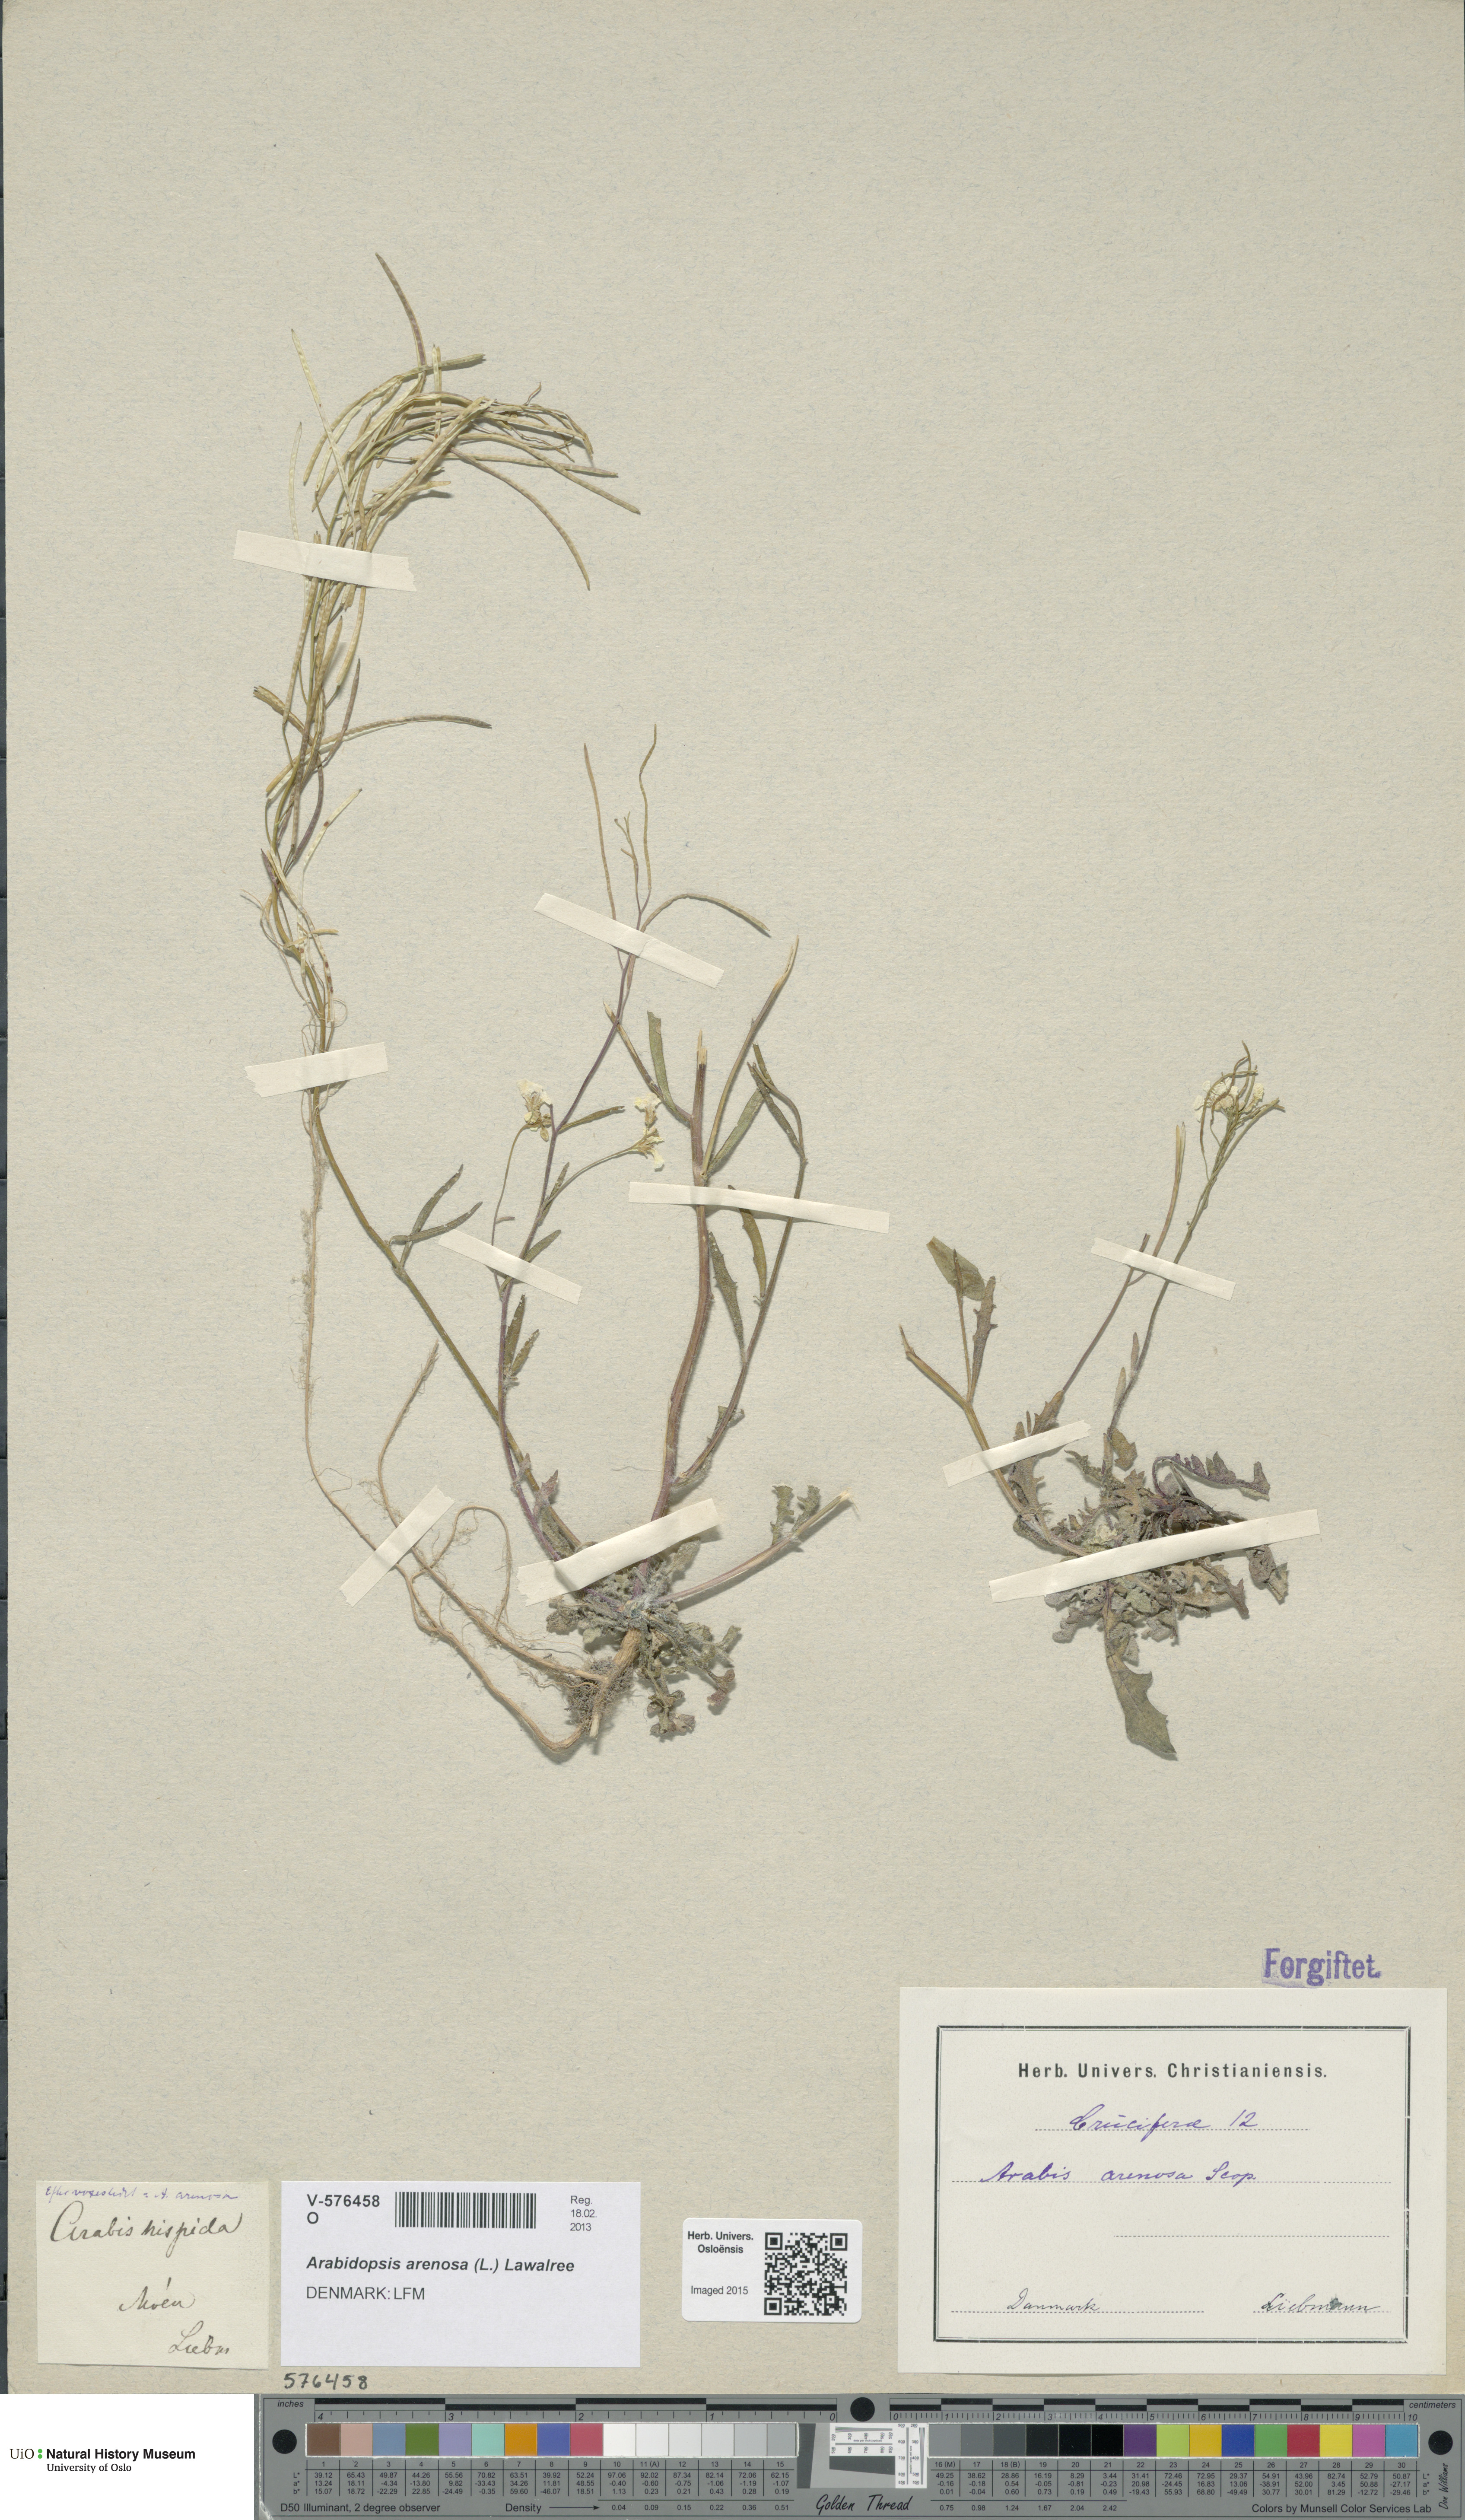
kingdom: Plantae
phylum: Tracheophyta
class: Magnoliopsida
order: Brassicales
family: Brassicaceae
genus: Arabidopsis
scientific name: Arabidopsis arenosa
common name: Sand rock-cress
